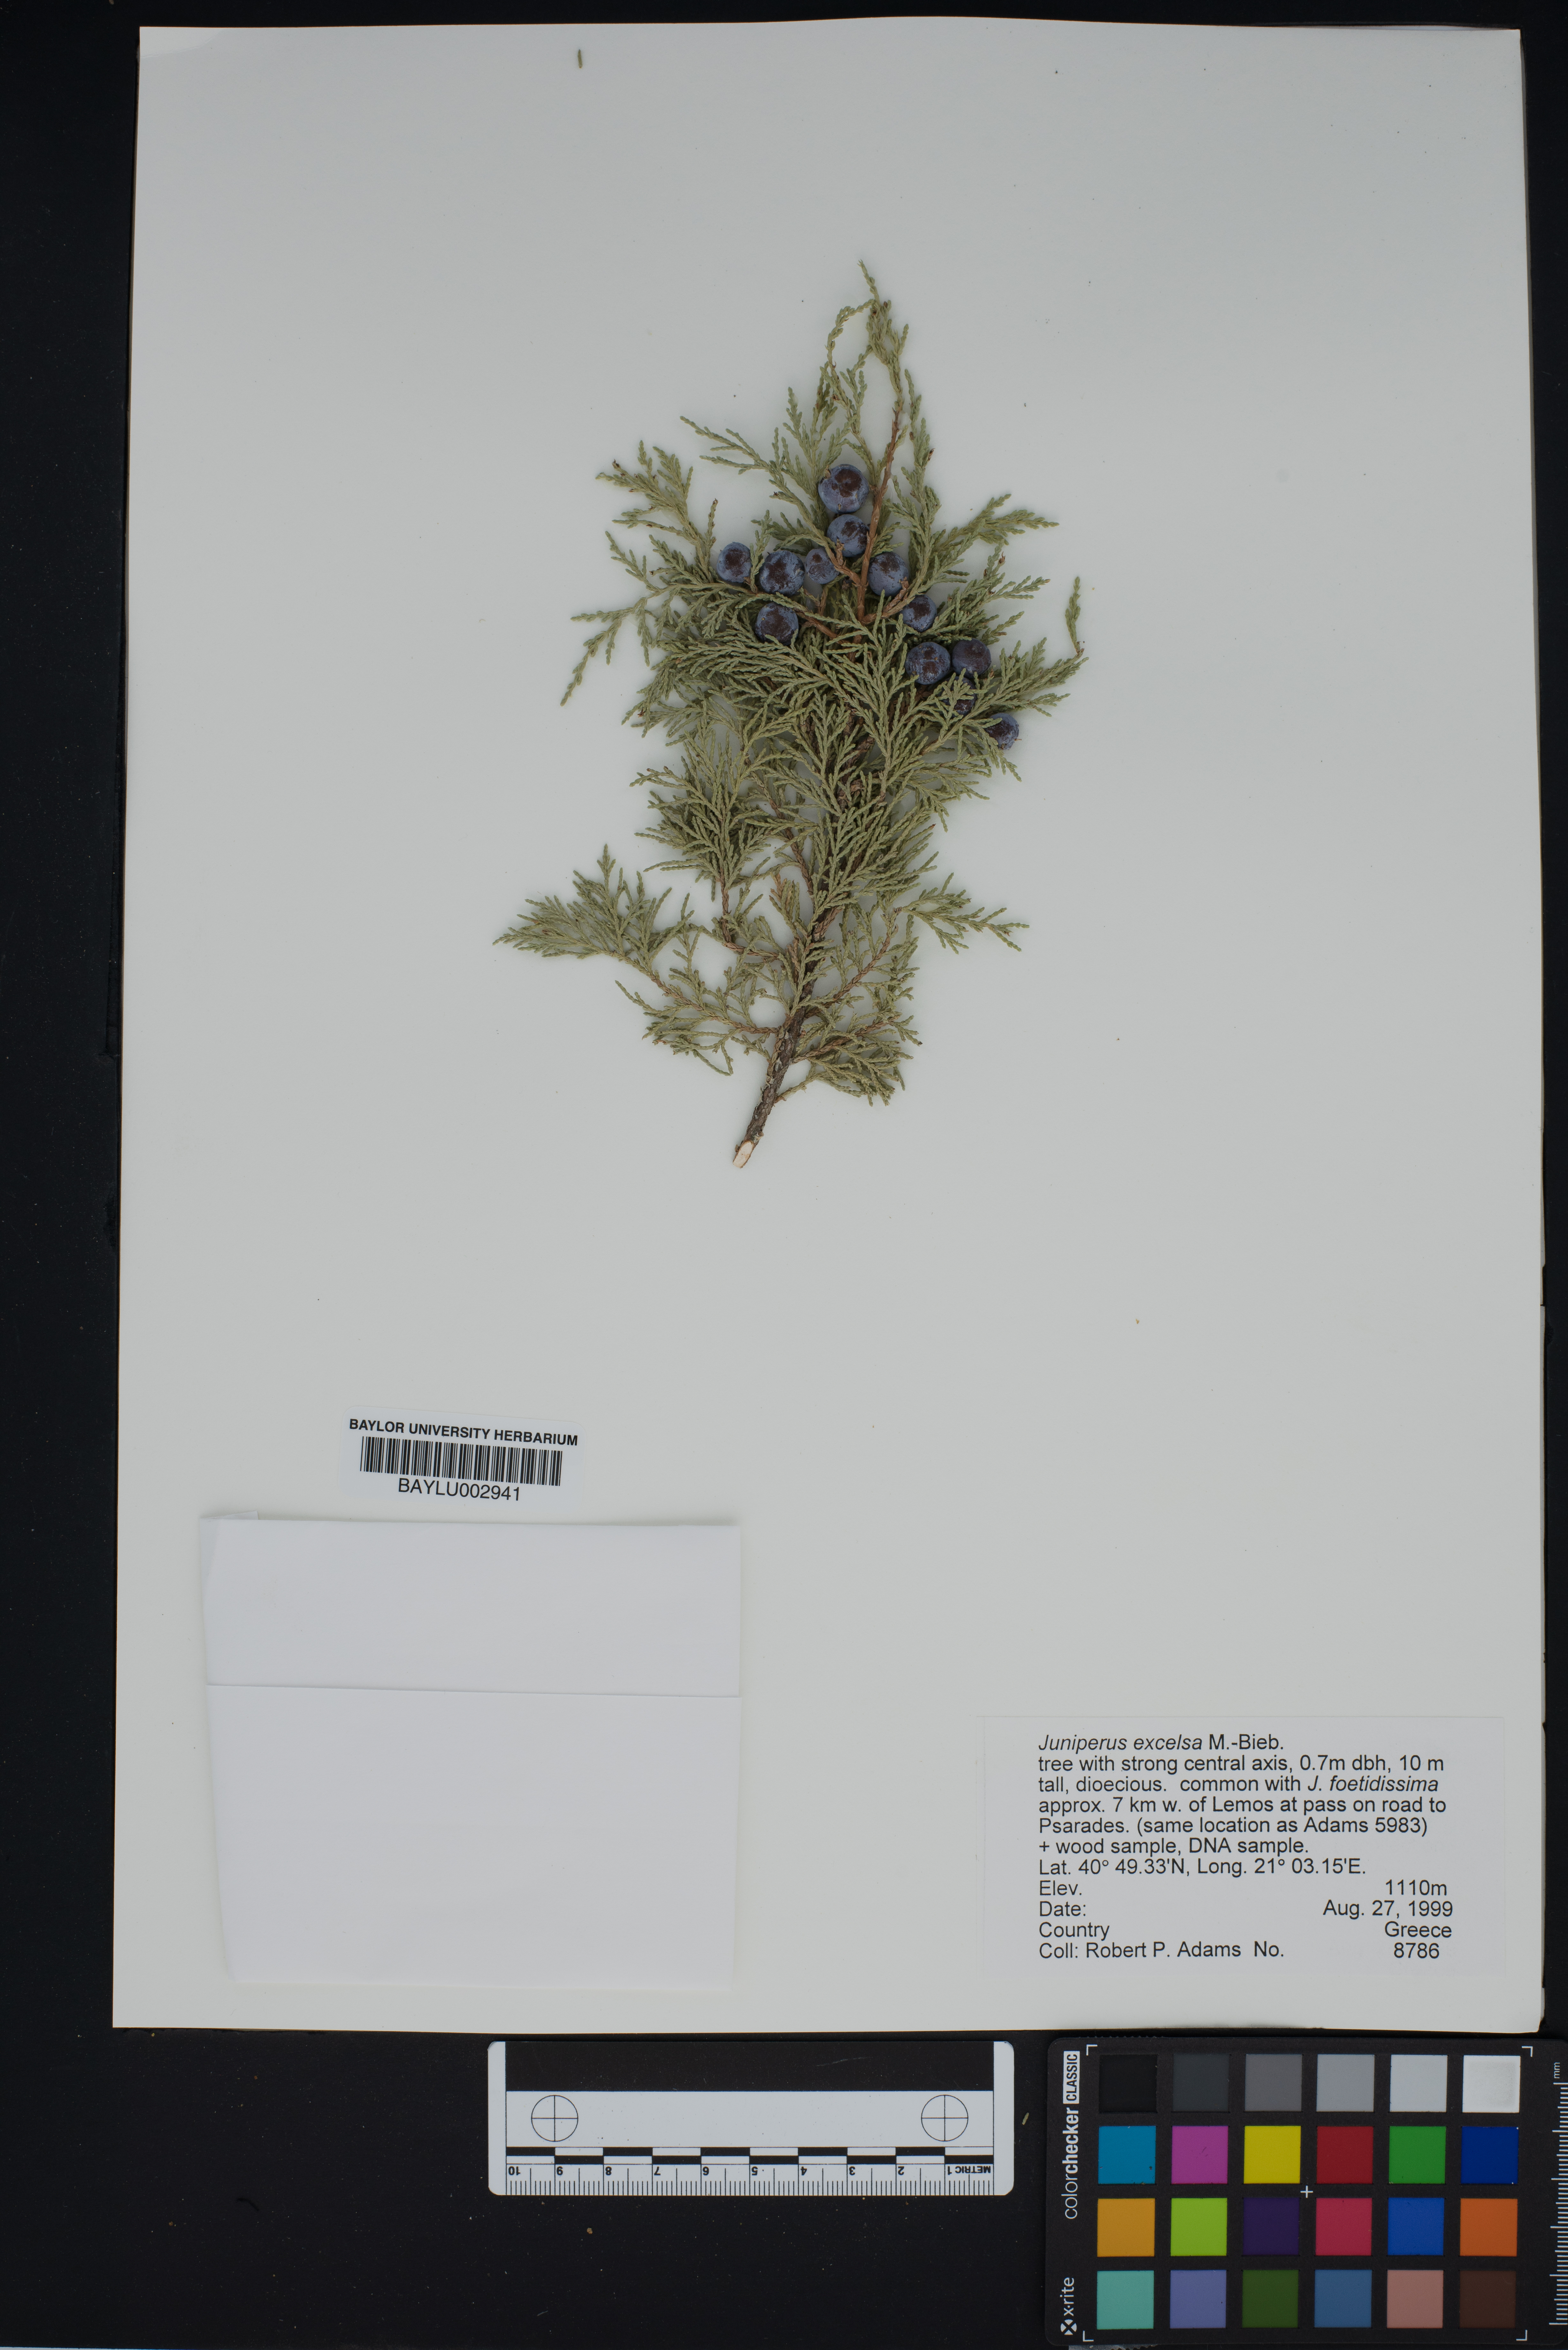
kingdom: Plantae
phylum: Tracheophyta
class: Pinopsida
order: Pinales
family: Cupressaceae
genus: Juniperus
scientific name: Juniperus excelsa
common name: Crimean juniper
